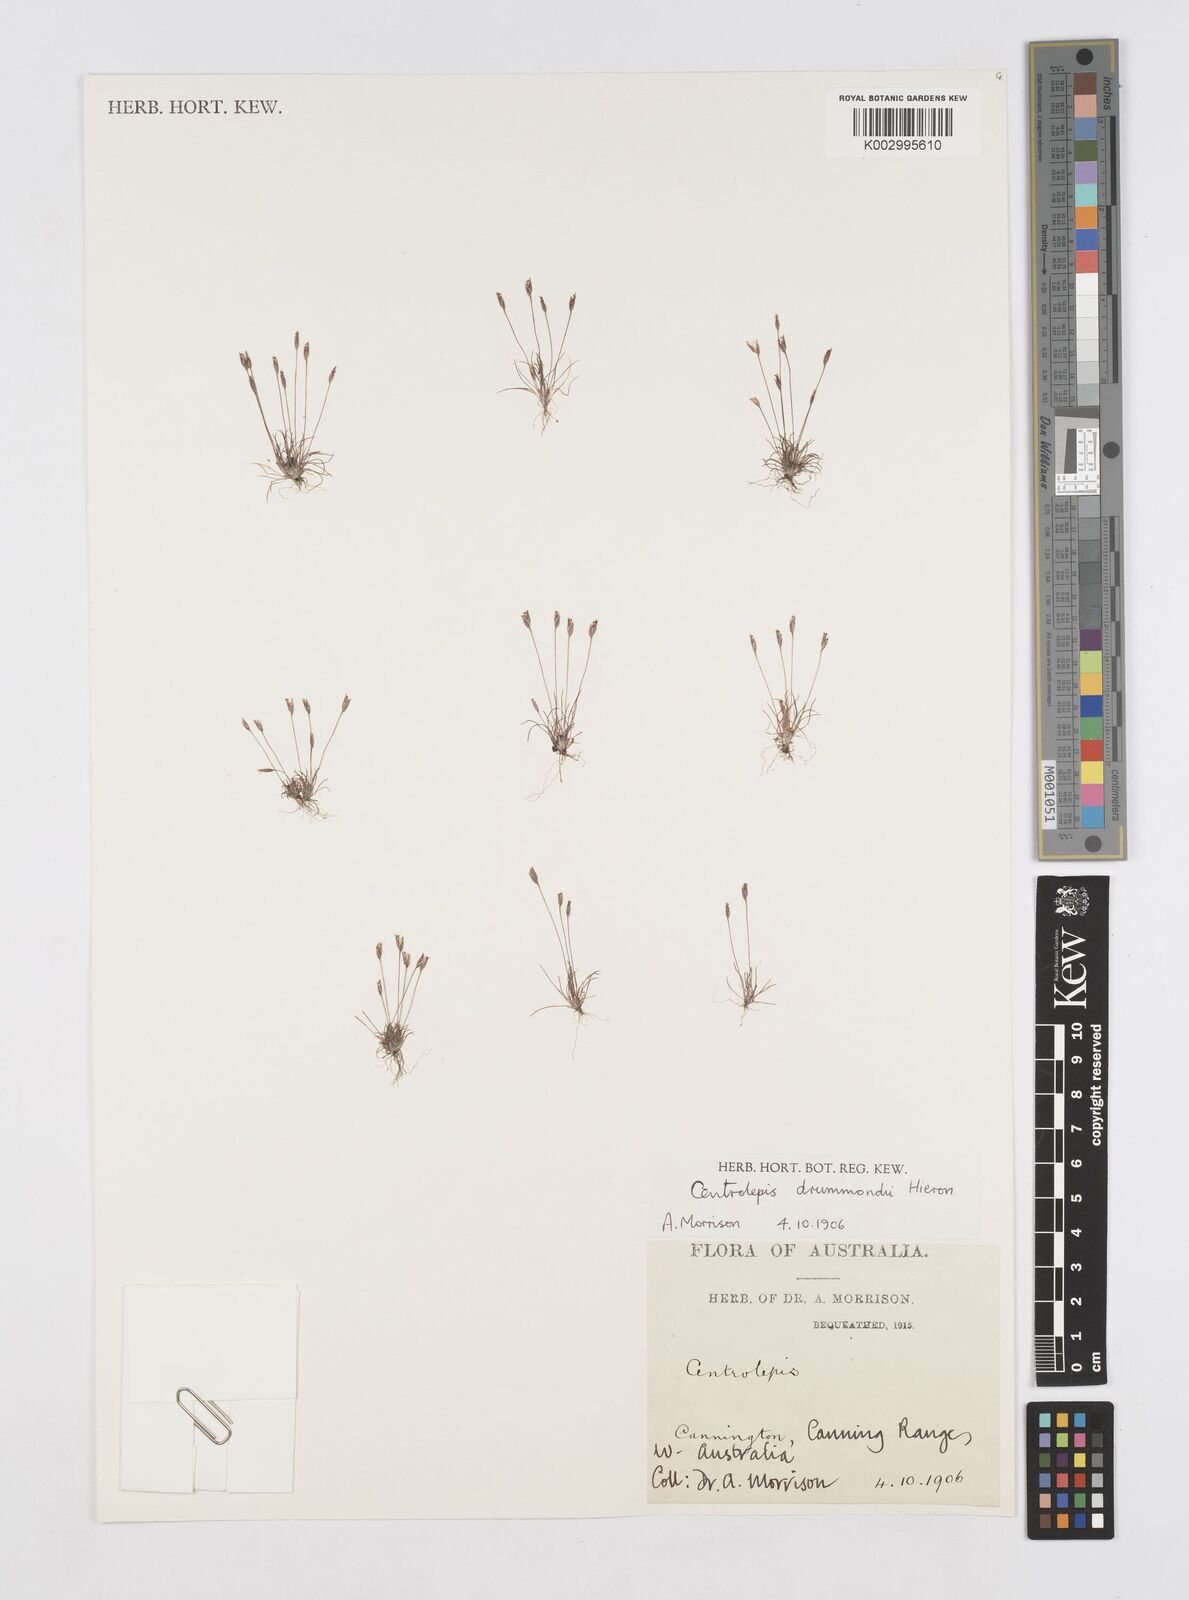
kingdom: Plantae
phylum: Tracheophyta
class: Liliopsida
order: Poales
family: Restionaceae
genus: Centrolepis
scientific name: Centrolepis drummondiana
